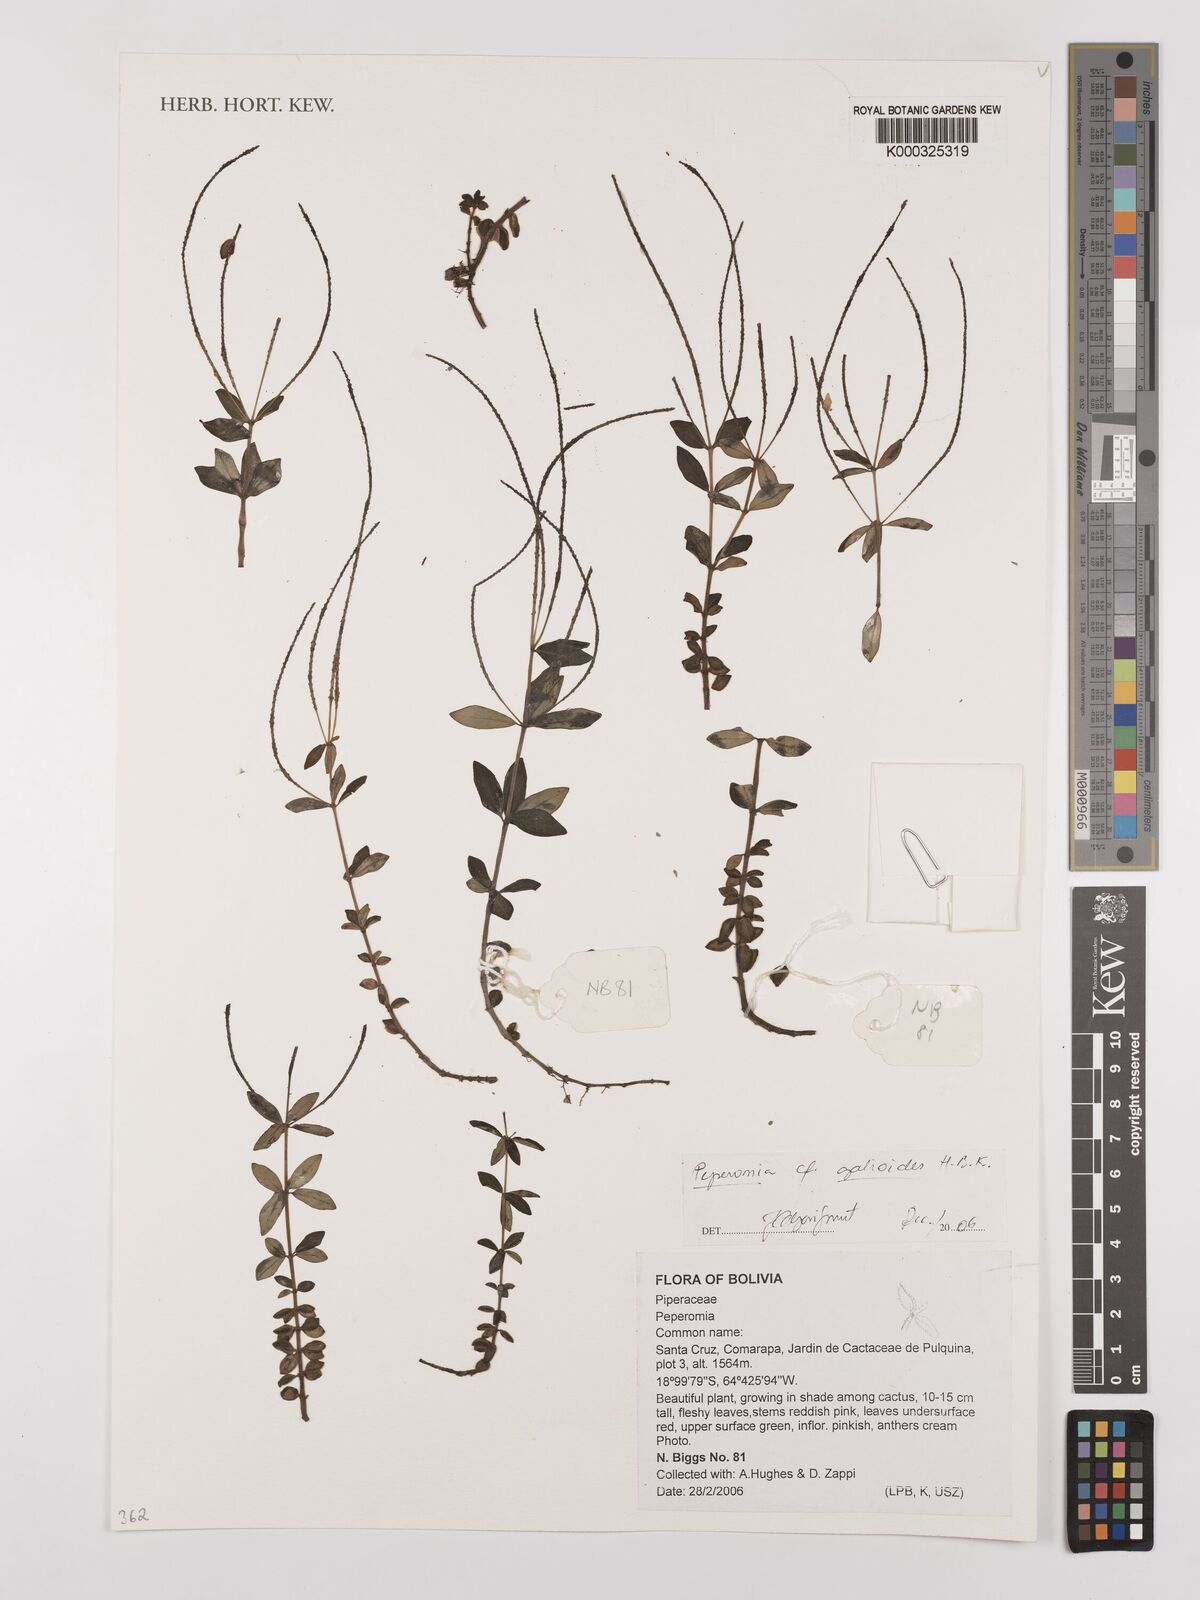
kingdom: Plantae
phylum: Tracheophyta
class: Magnoliopsida
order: Piperales
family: Piperaceae
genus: Peperomia
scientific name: Peperomia
